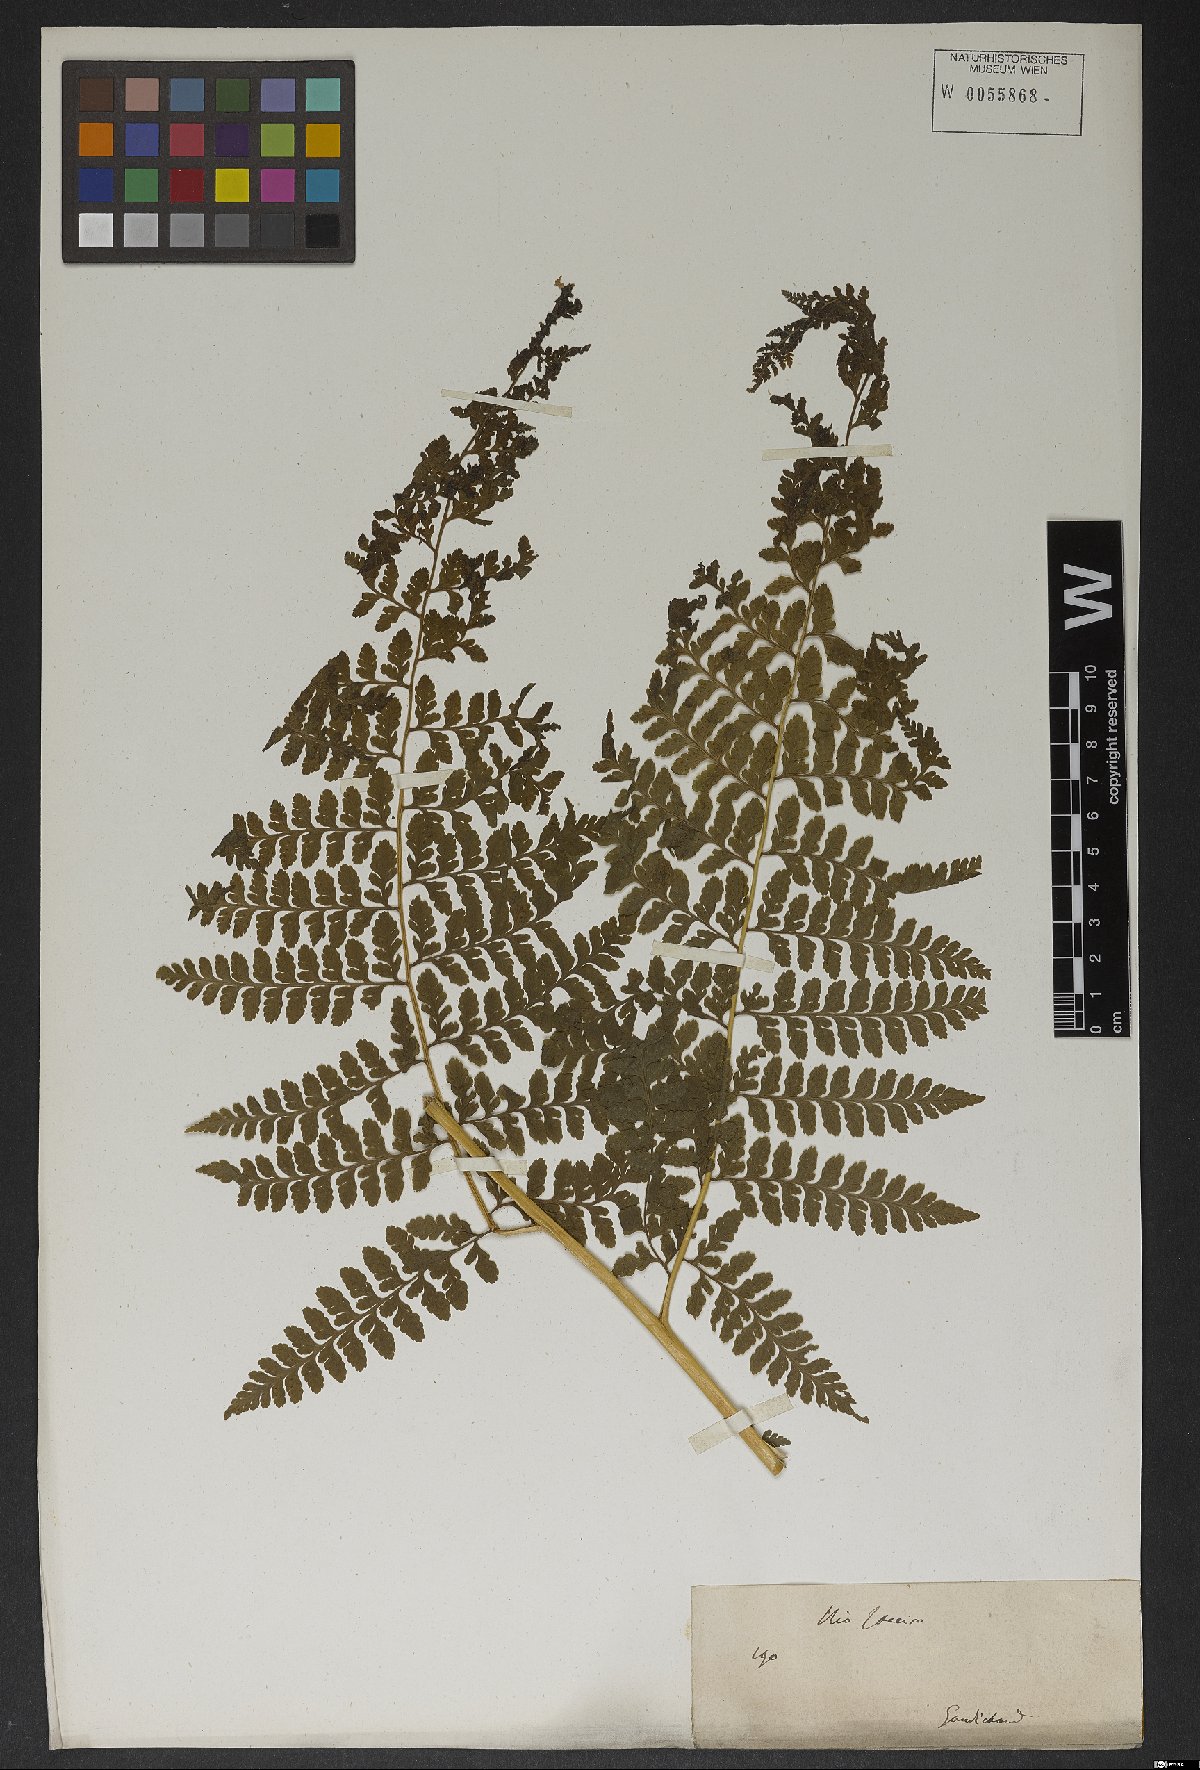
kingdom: Plantae
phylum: Tracheophyta
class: Polypodiopsida
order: Polypodiales
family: Dennstaedtiaceae
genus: Microlepia
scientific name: Microlepia
